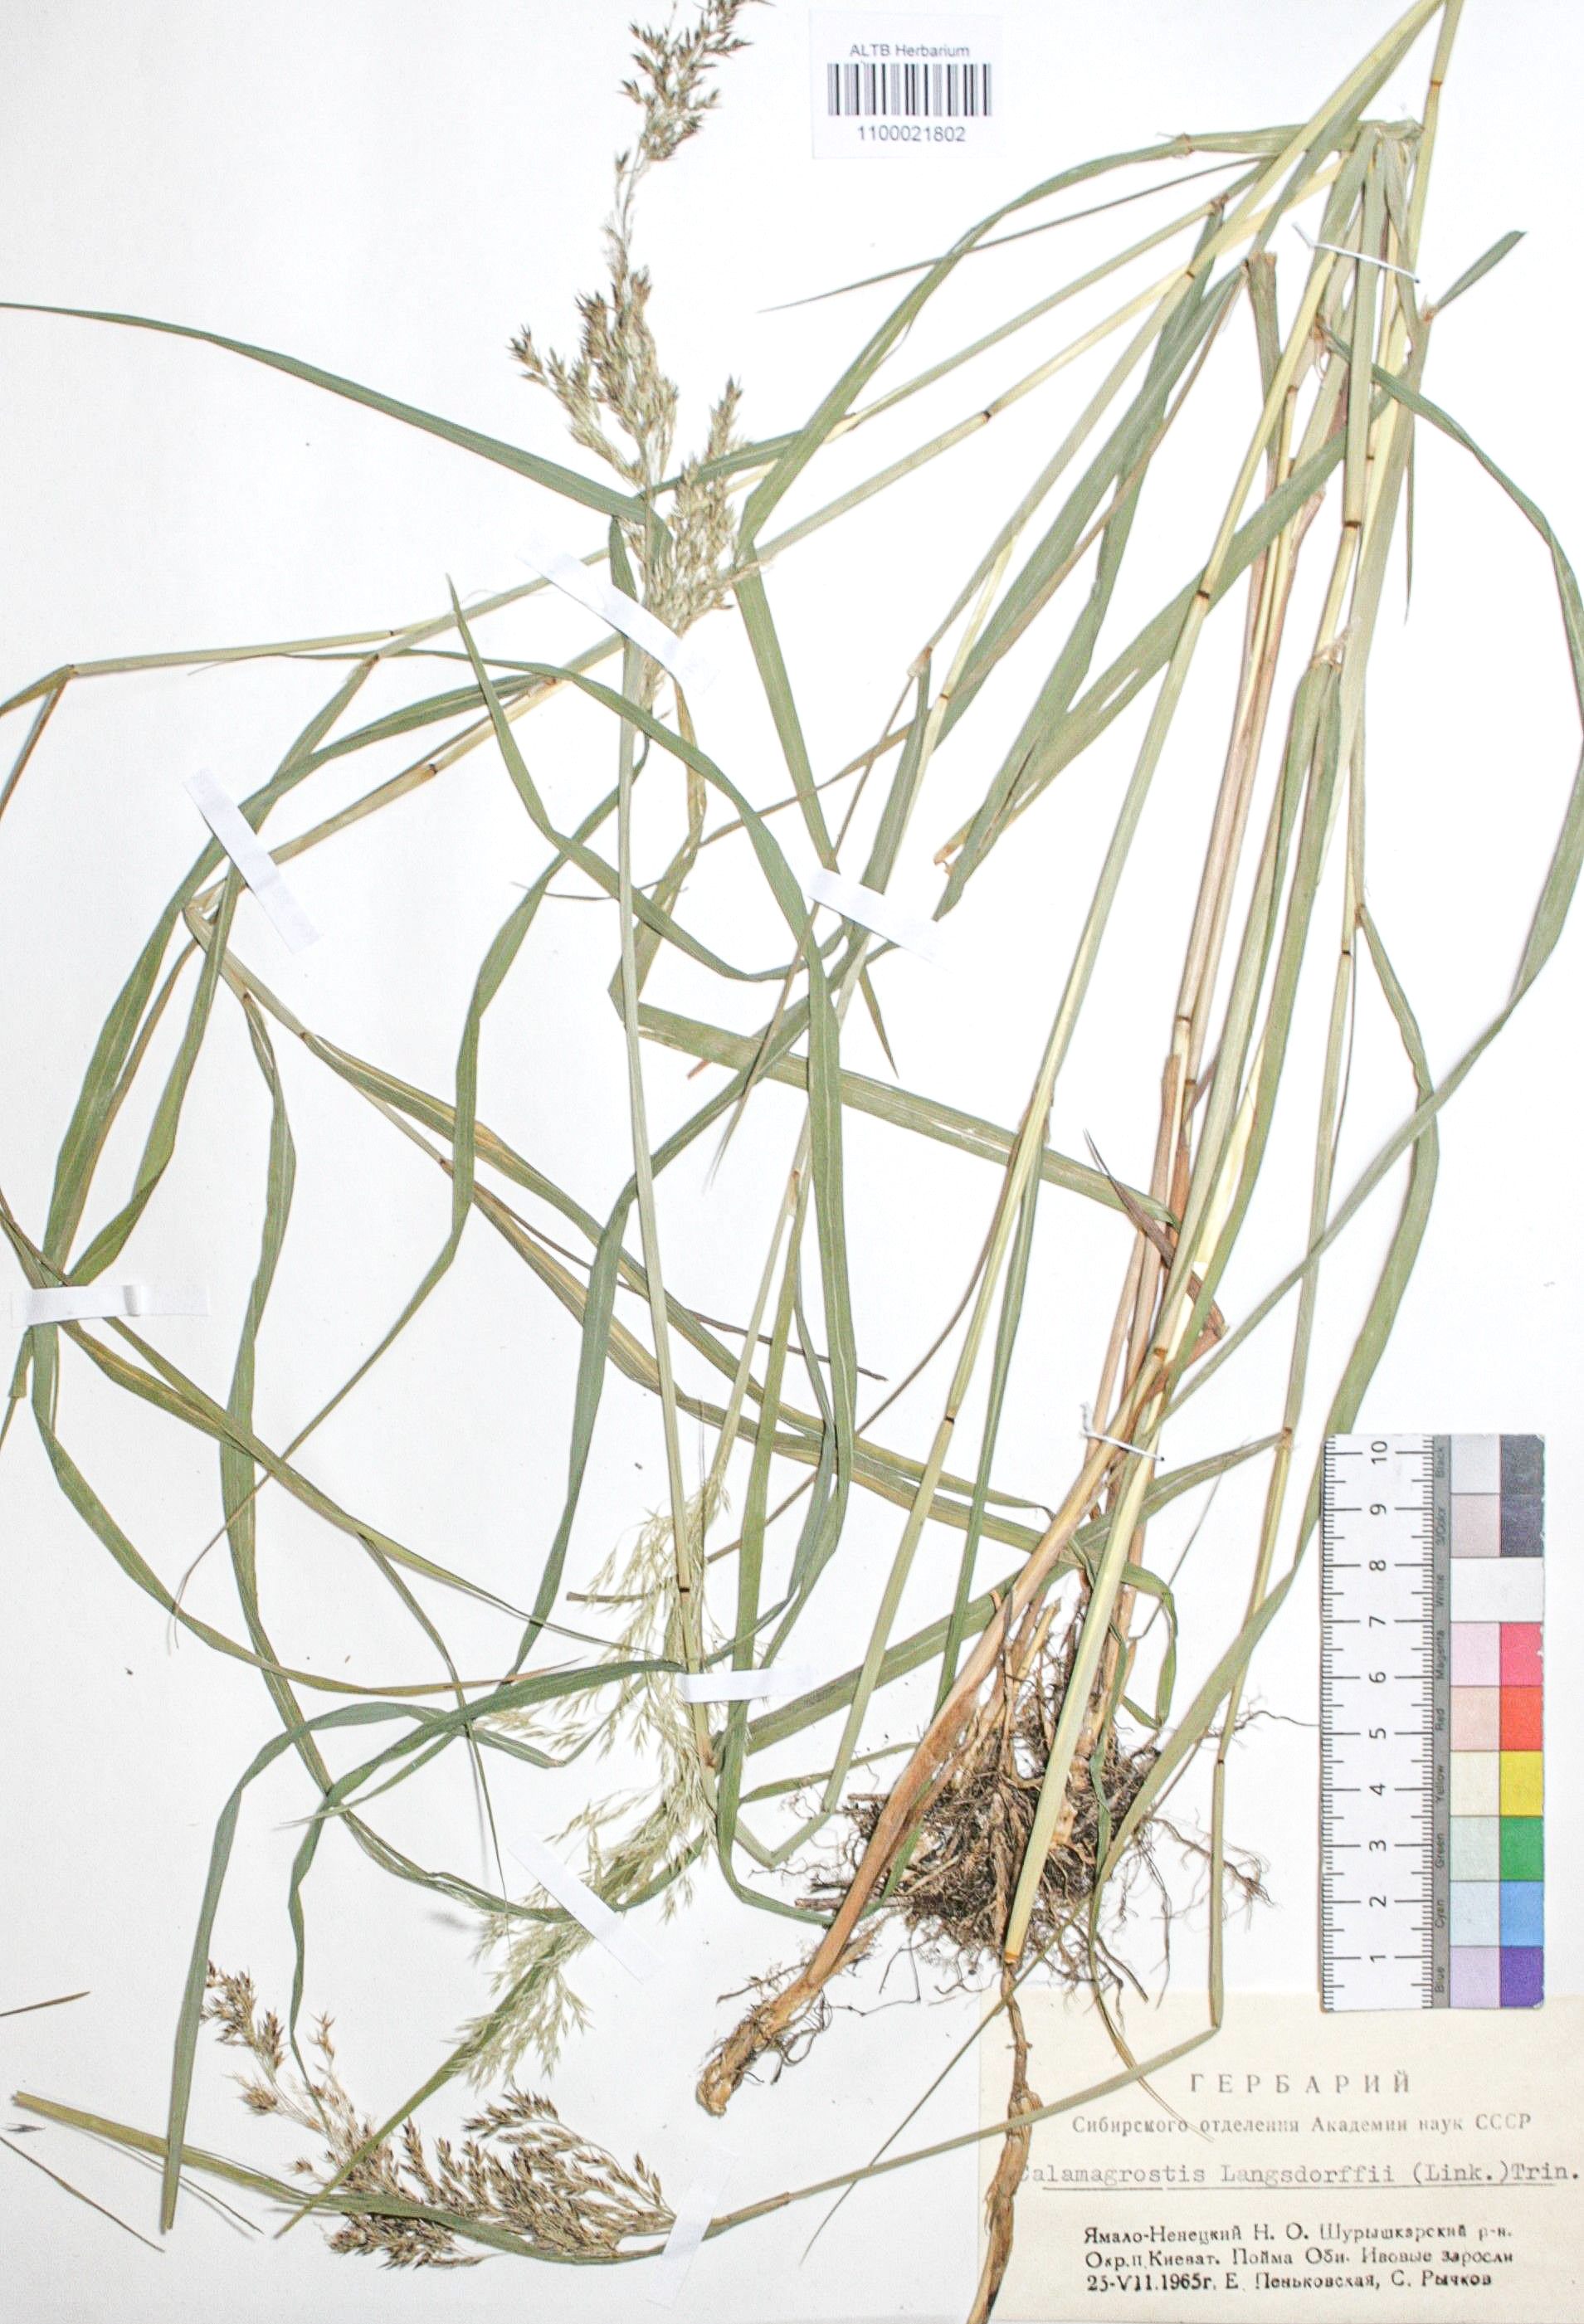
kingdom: Plantae
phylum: Tracheophyta
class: Liliopsida
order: Poales
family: Poaceae
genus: Calamagrostis
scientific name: Calamagrostis purpurea
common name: Scandinavian small-reed
